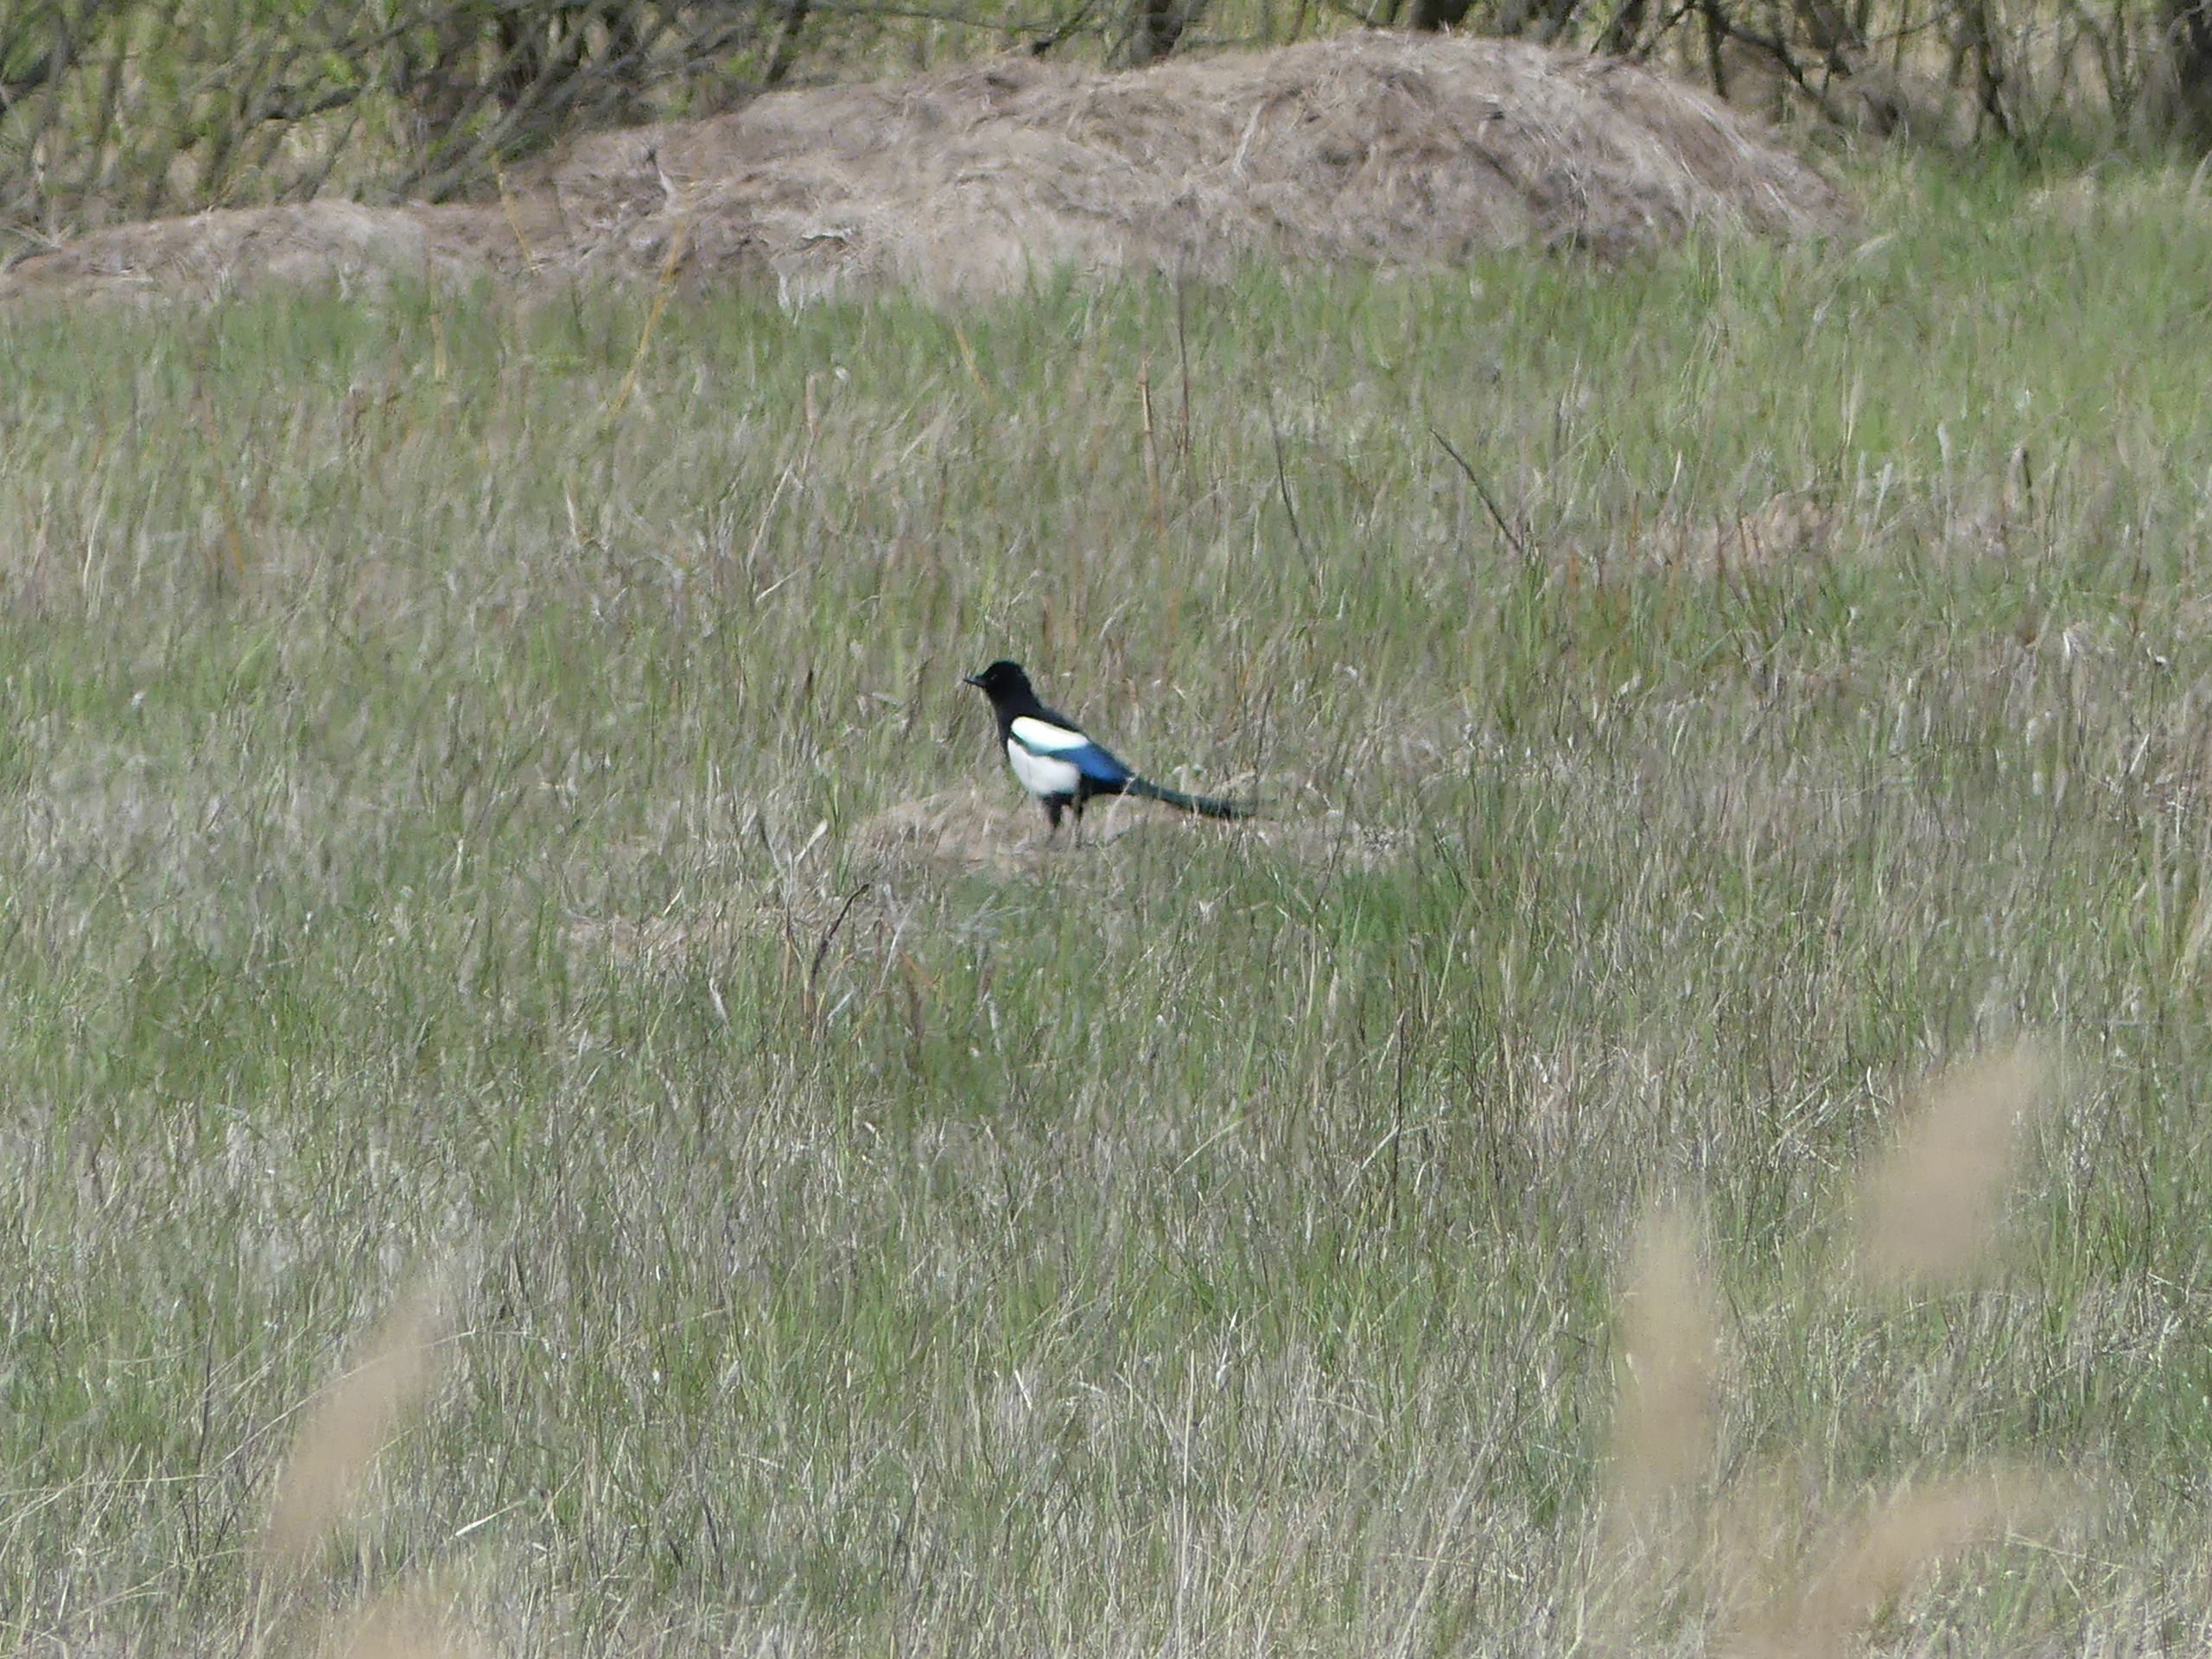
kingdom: Animalia
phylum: Chordata
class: Aves
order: Passeriformes
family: Corvidae
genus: Pica
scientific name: Pica pica
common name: Husskade
